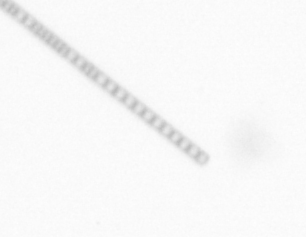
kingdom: Chromista
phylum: Ochrophyta
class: Bacillariophyceae
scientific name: Bacillariophyceae
